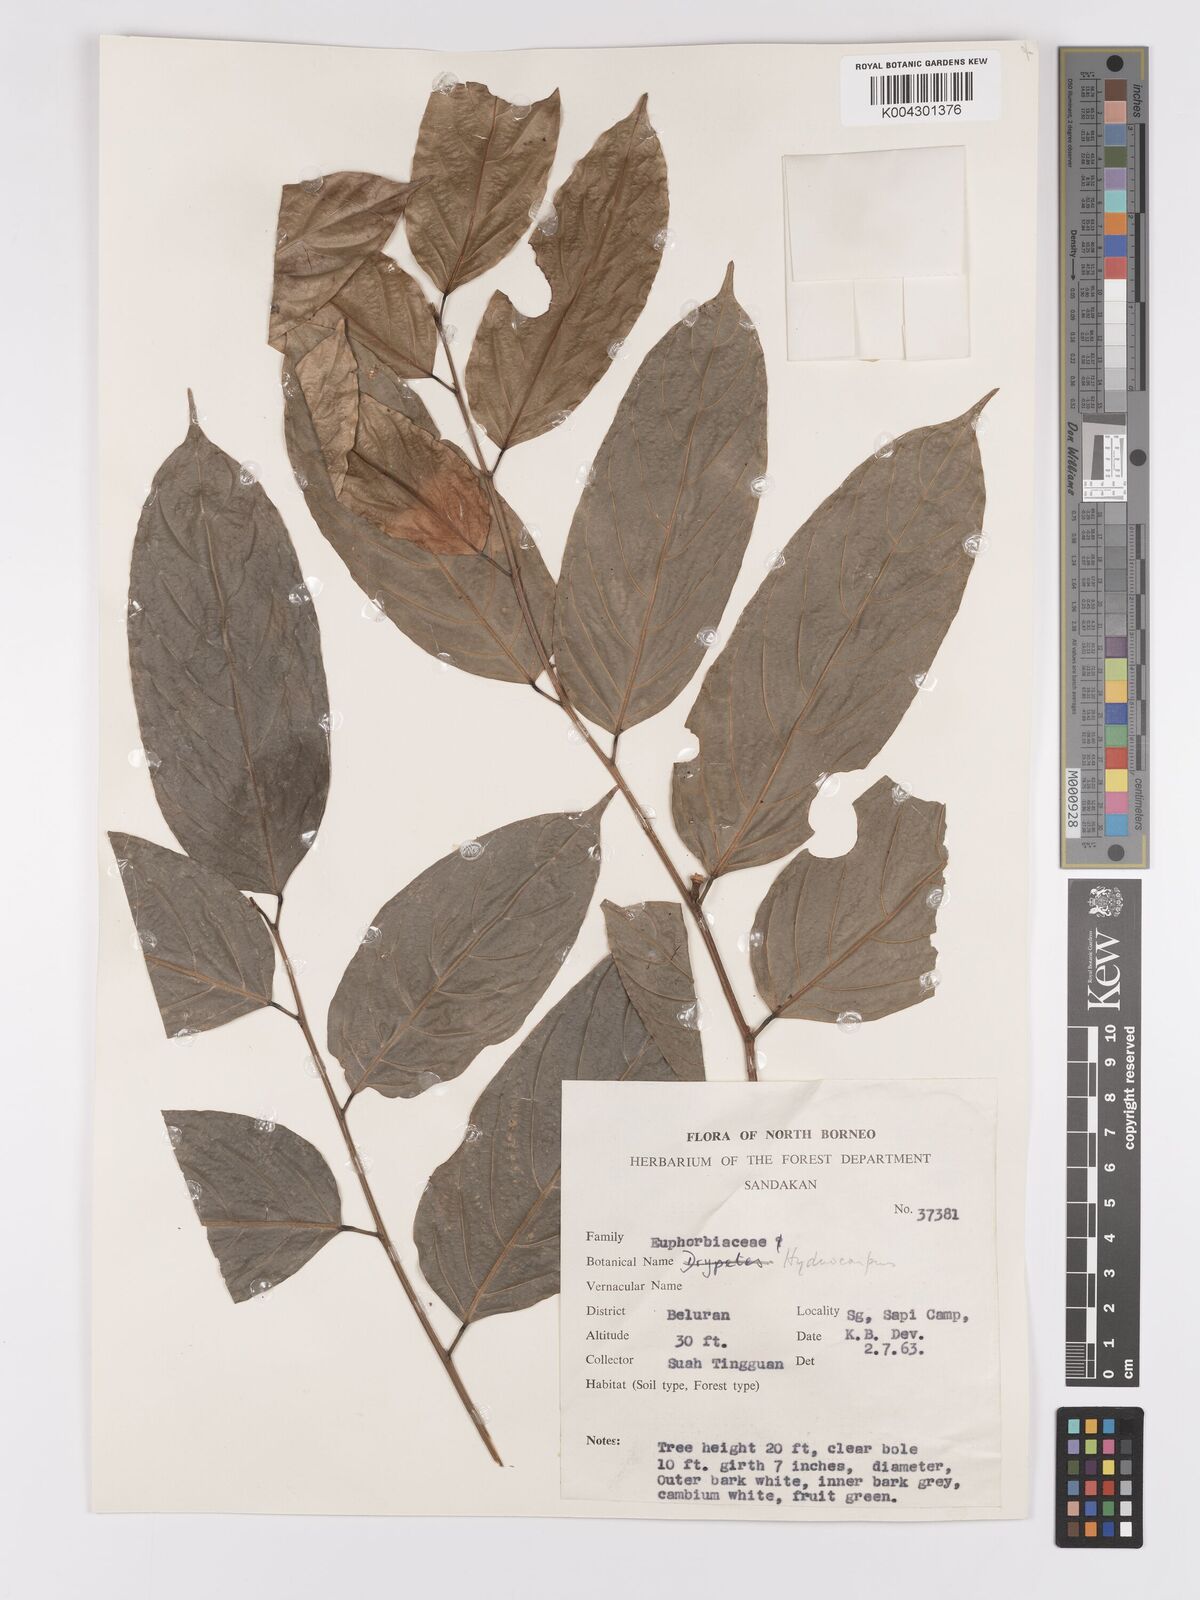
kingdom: Plantae
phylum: Tracheophyta
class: Magnoliopsida
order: Malpighiales
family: Achariaceae
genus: Hydnocarpus
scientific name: Hydnocarpus
